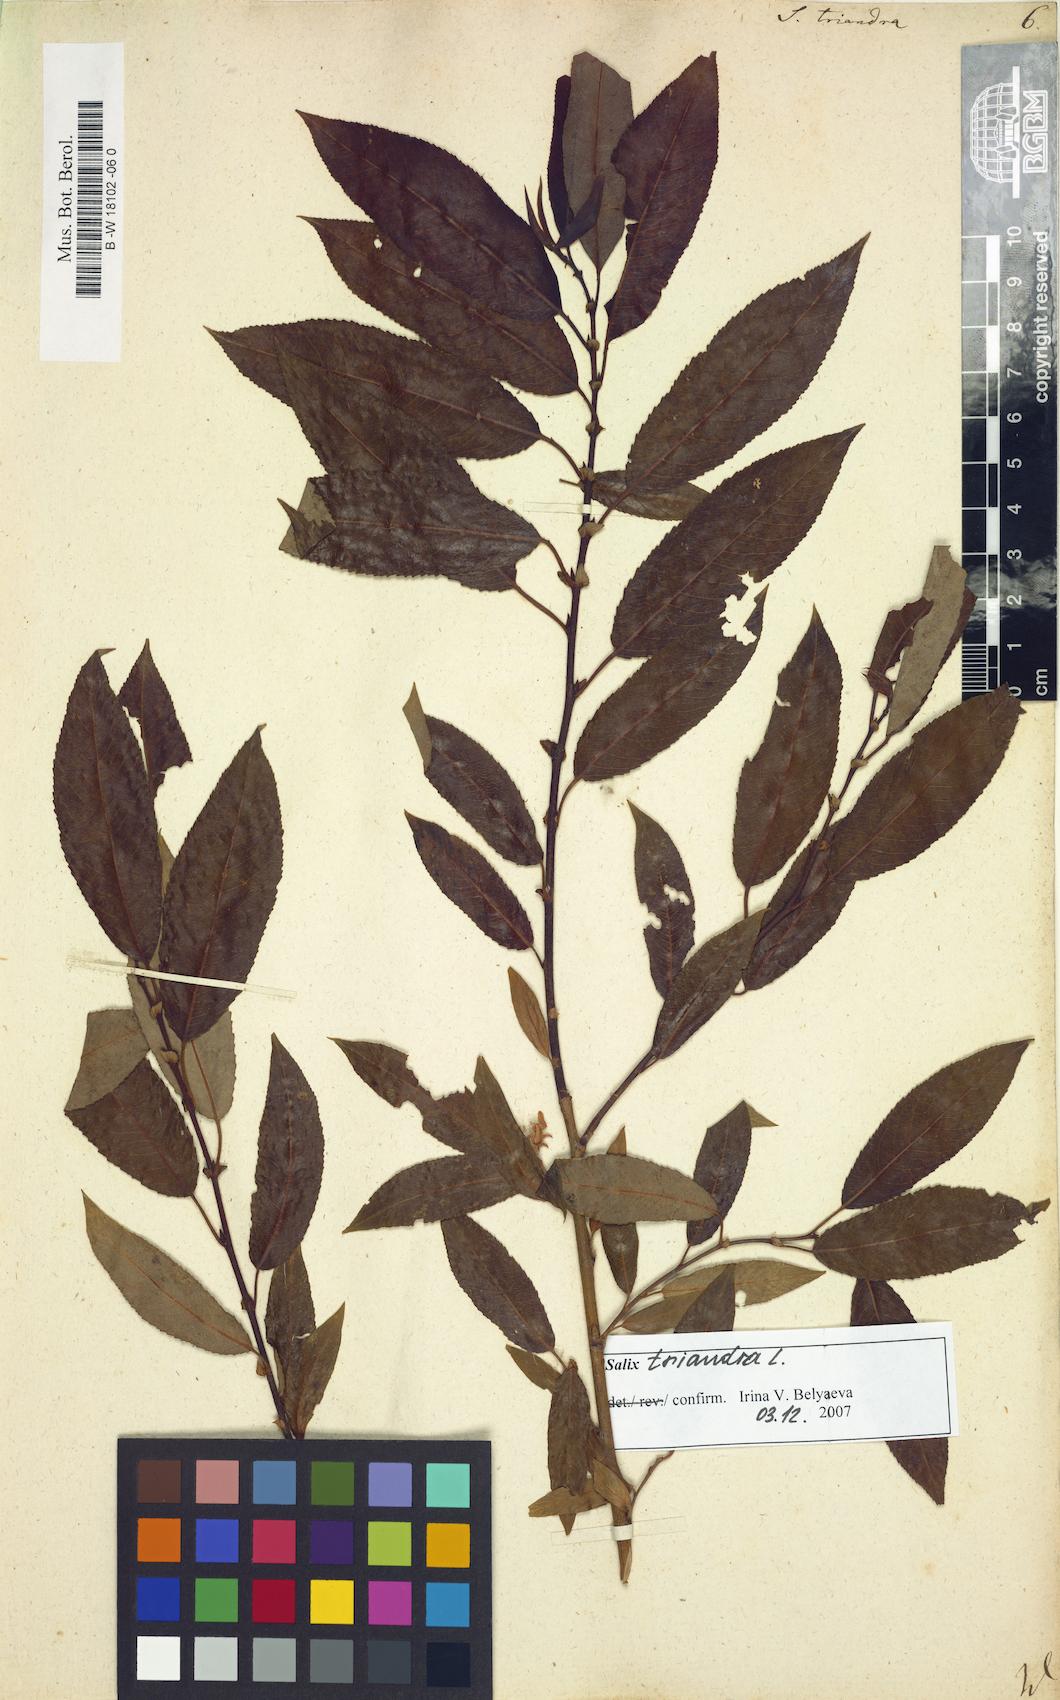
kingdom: Plantae
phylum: Tracheophyta
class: Magnoliopsida
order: Malpighiales
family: Salicaceae
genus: Salix
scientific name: Salix triandra
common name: Almond willow
